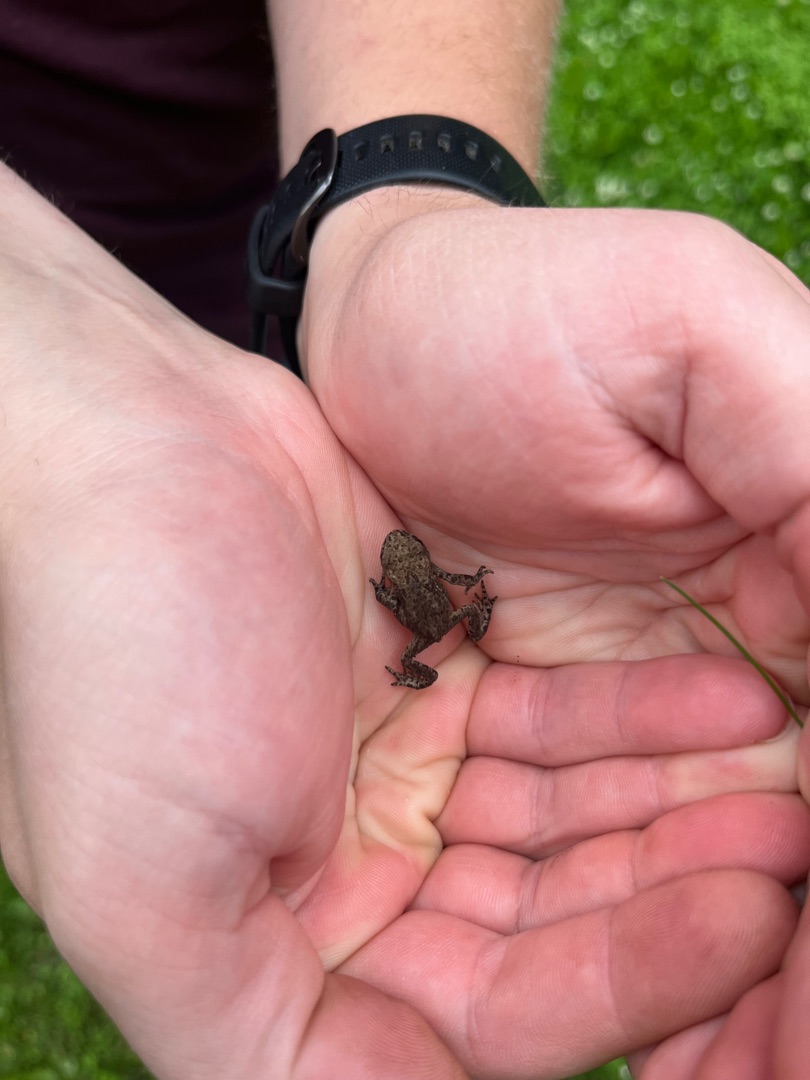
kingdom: Animalia
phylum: Chordata
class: Amphibia
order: Anura
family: Bufonidae
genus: Bufo
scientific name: Bufo bufo
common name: Skrubtudse
